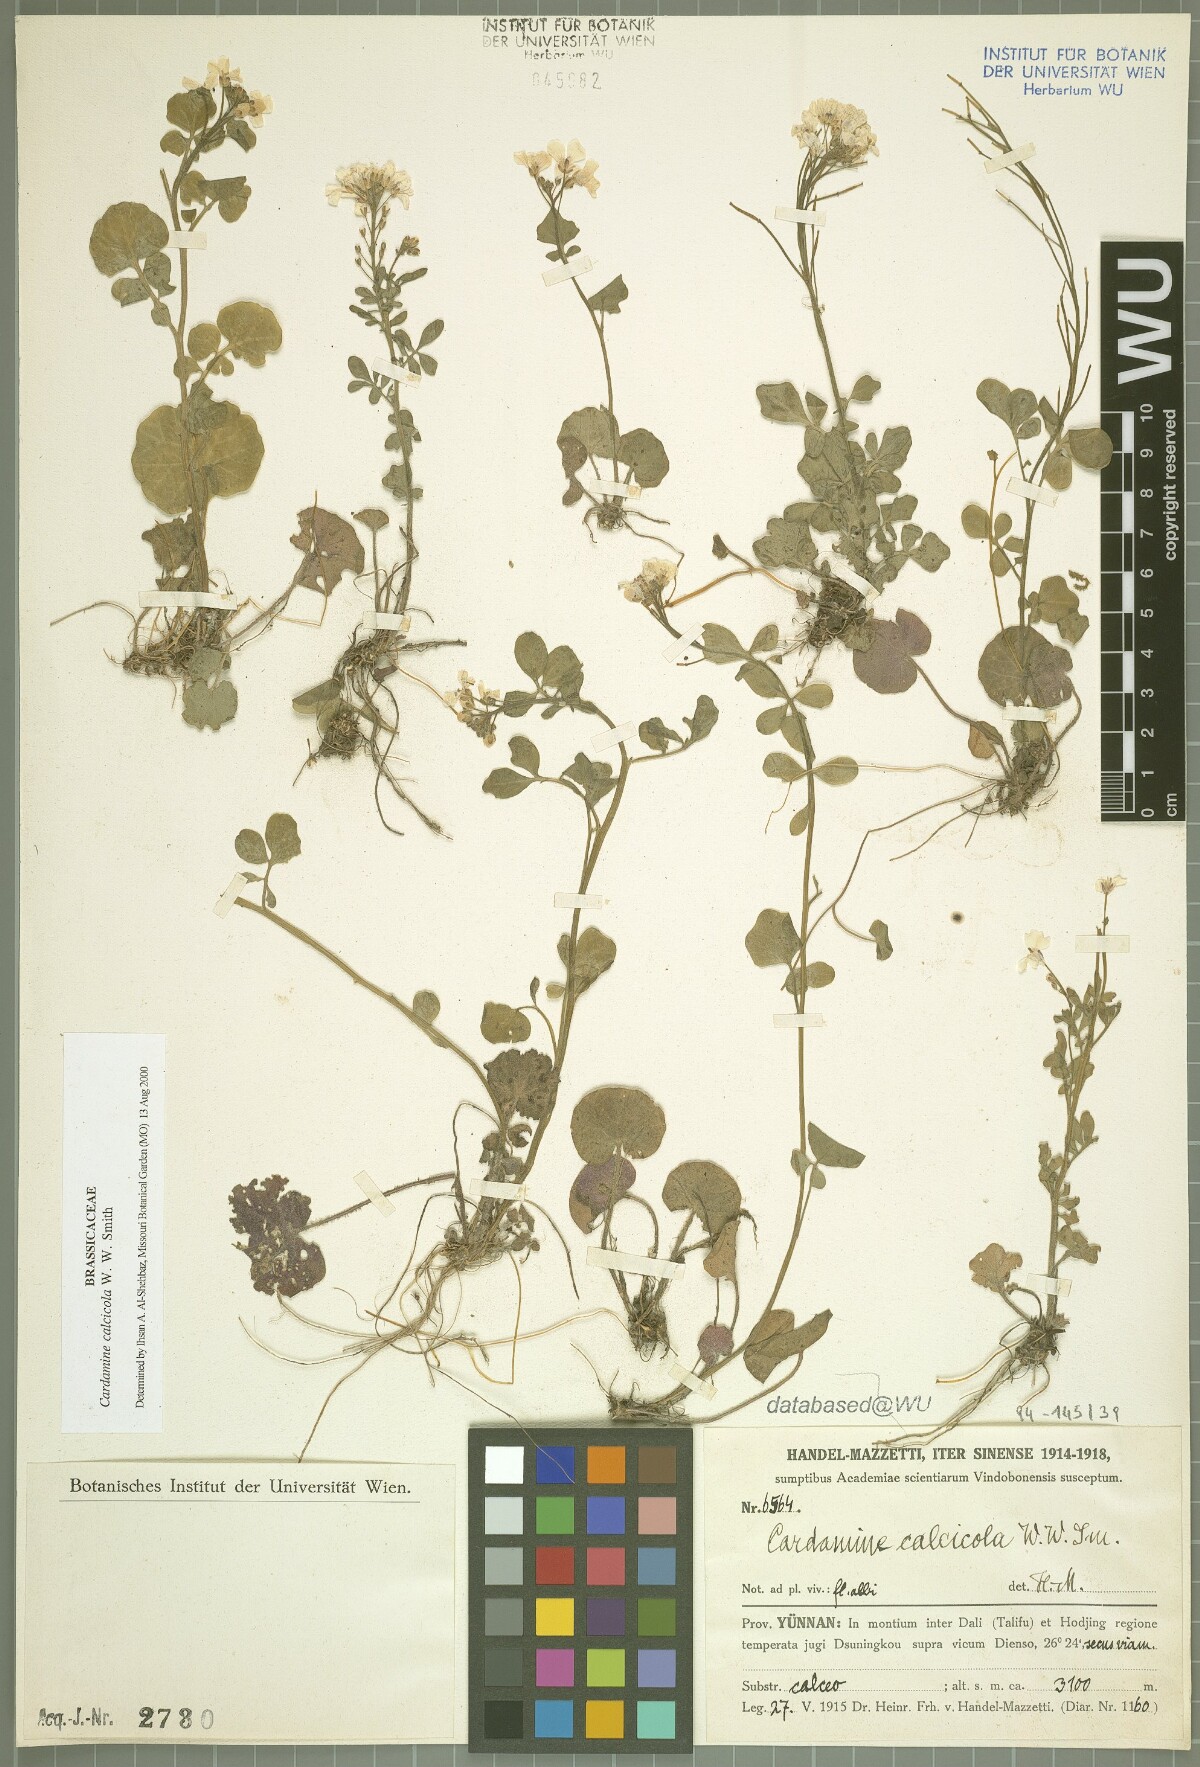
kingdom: Plantae
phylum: Tracheophyta
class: Magnoliopsida
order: Brassicales
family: Brassicaceae
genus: Cardamine
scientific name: Cardamine calcicola
